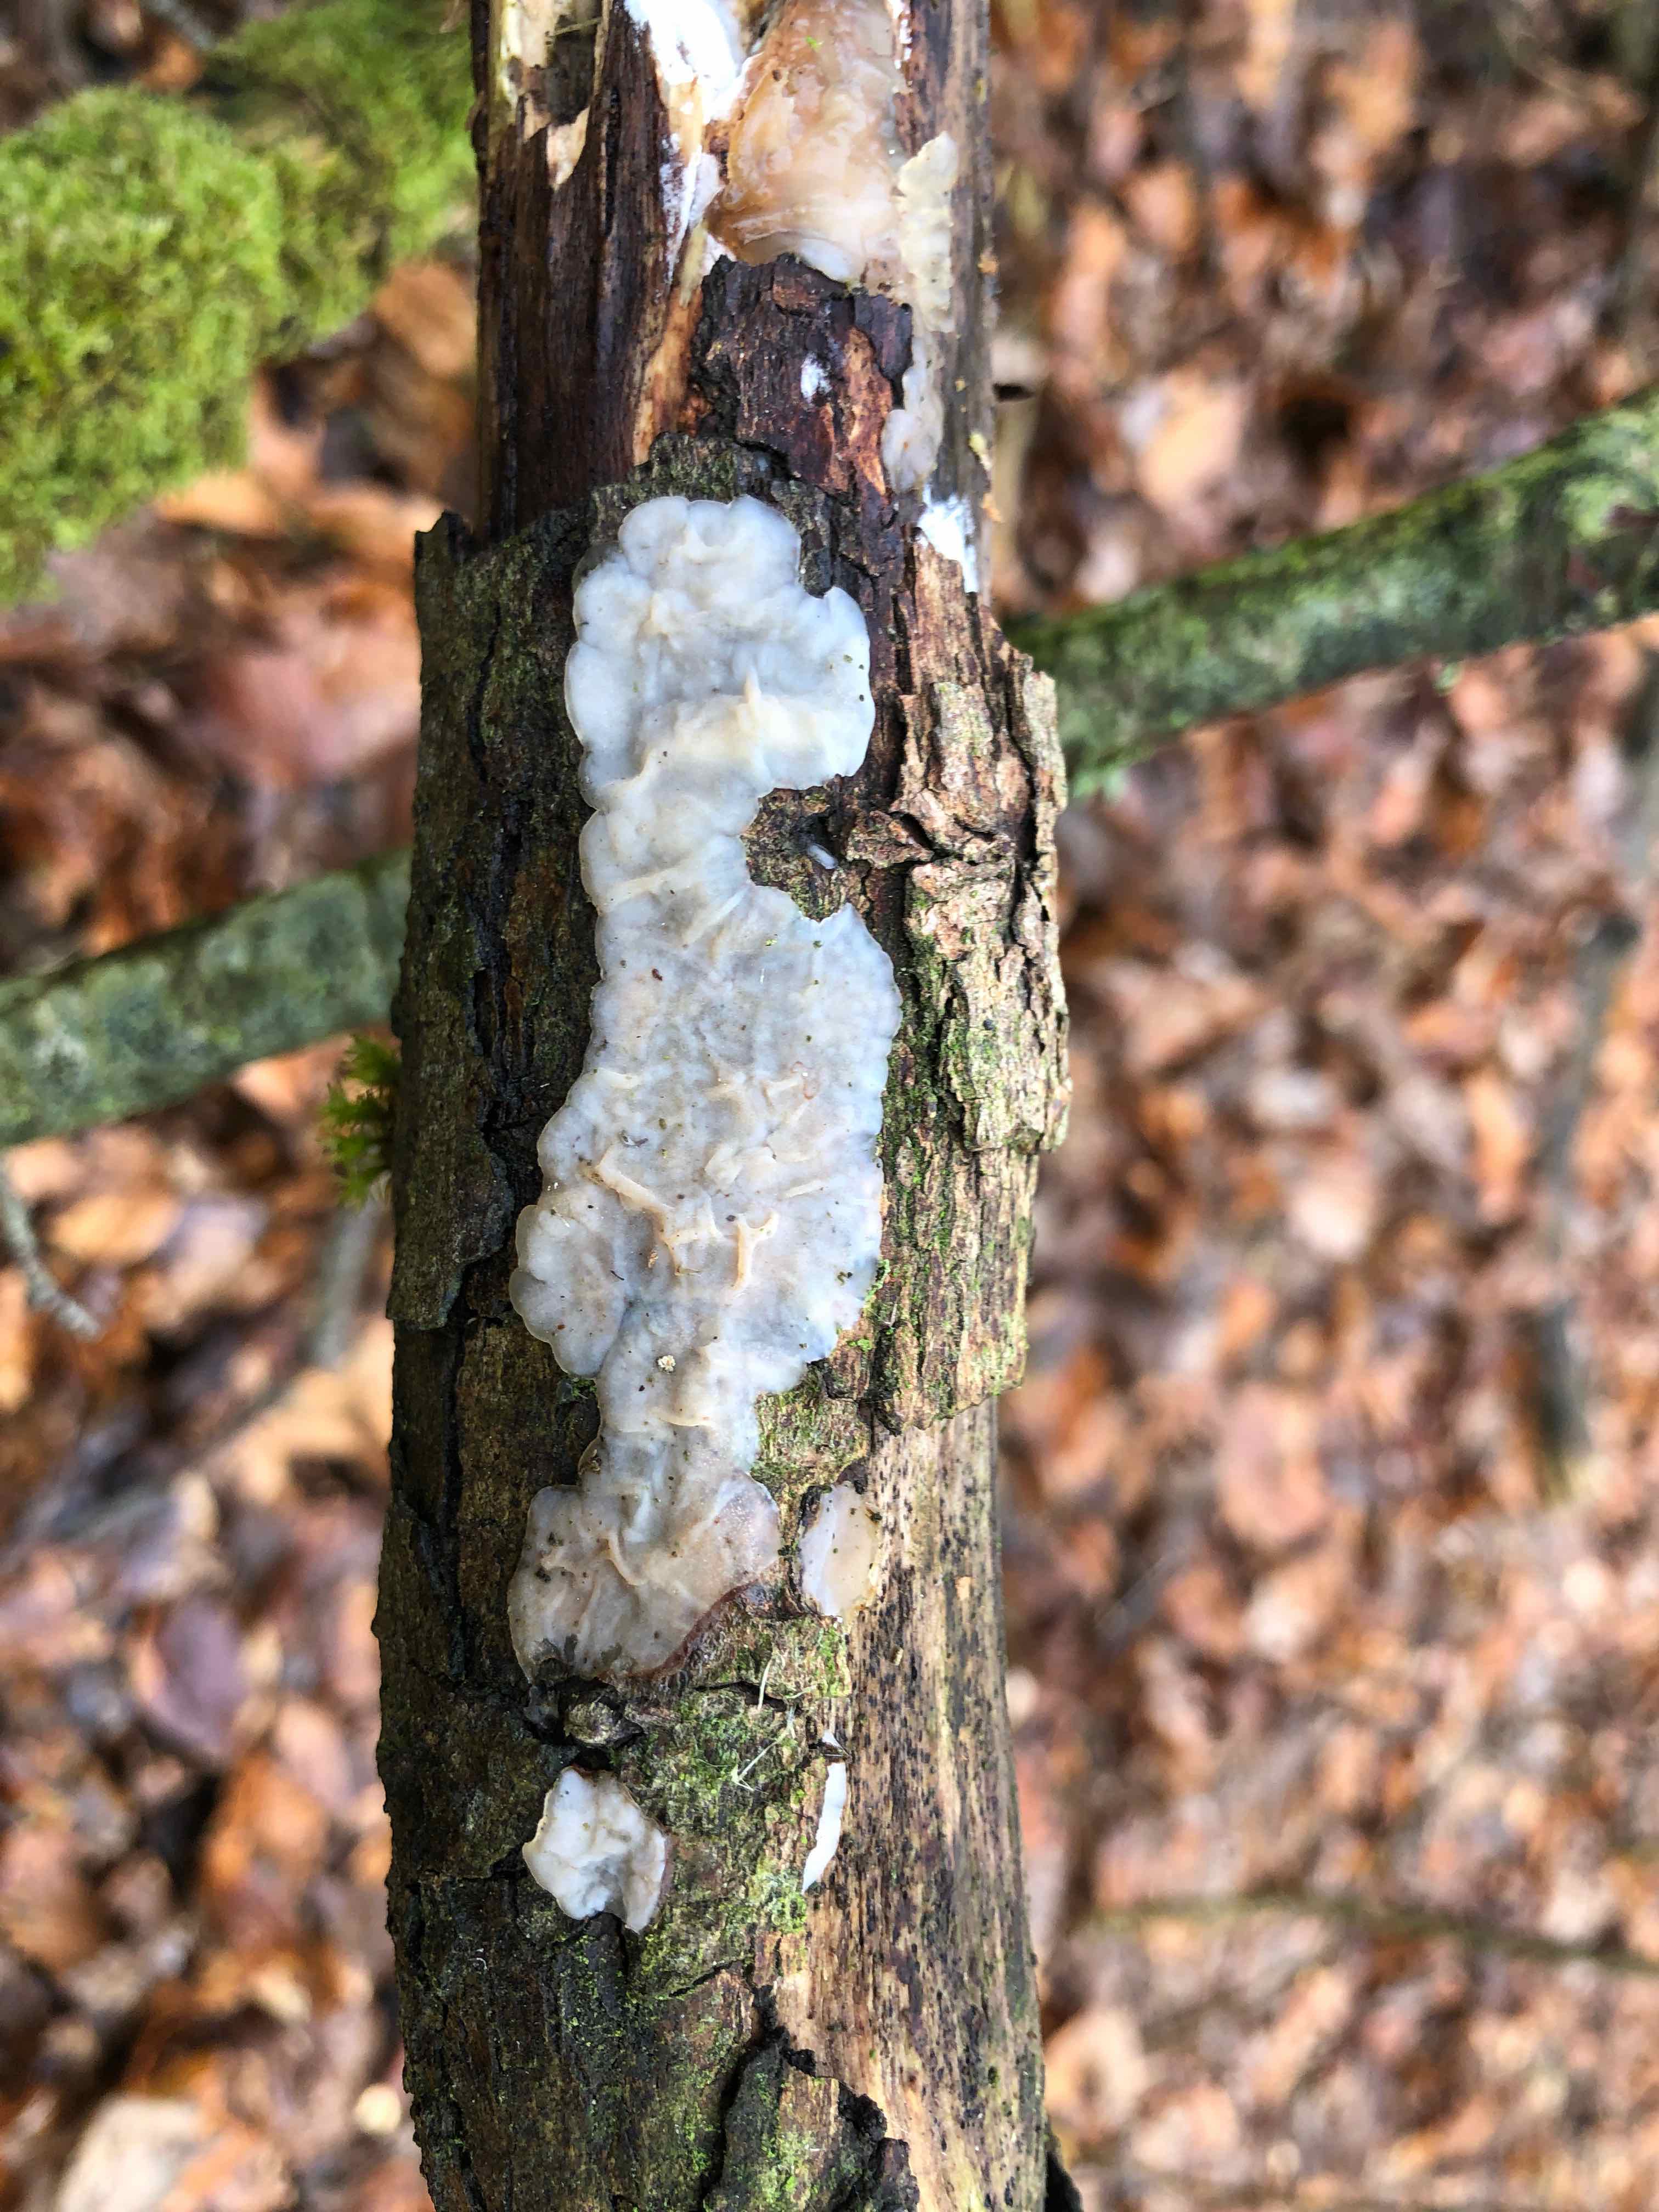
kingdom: Fungi
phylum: Basidiomycota
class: Agaricomycetes
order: Auriculariales
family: Auriculariaceae
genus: Exidia
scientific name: Exidia thuretiana
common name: hvidlig bævretop
